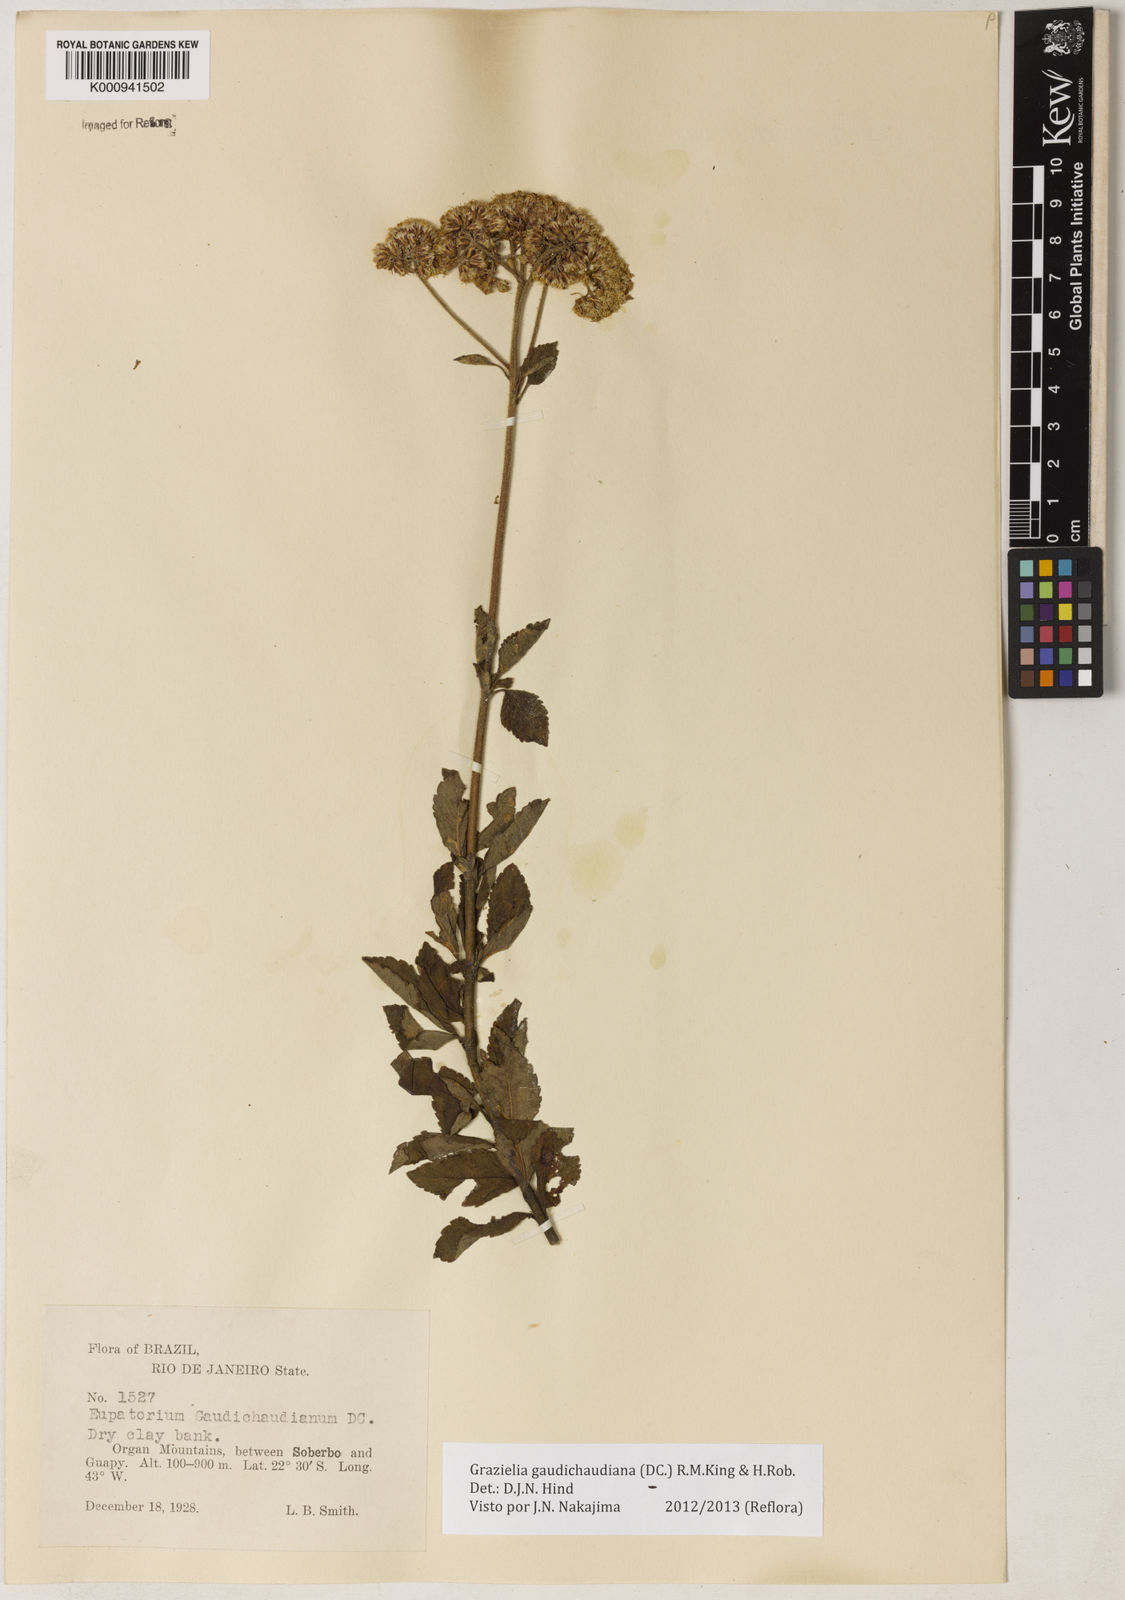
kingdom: Plantae
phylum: Tracheophyta
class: Magnoliopsida
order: Asterales
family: Asteraceae
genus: Grazielia
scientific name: Grazielia
